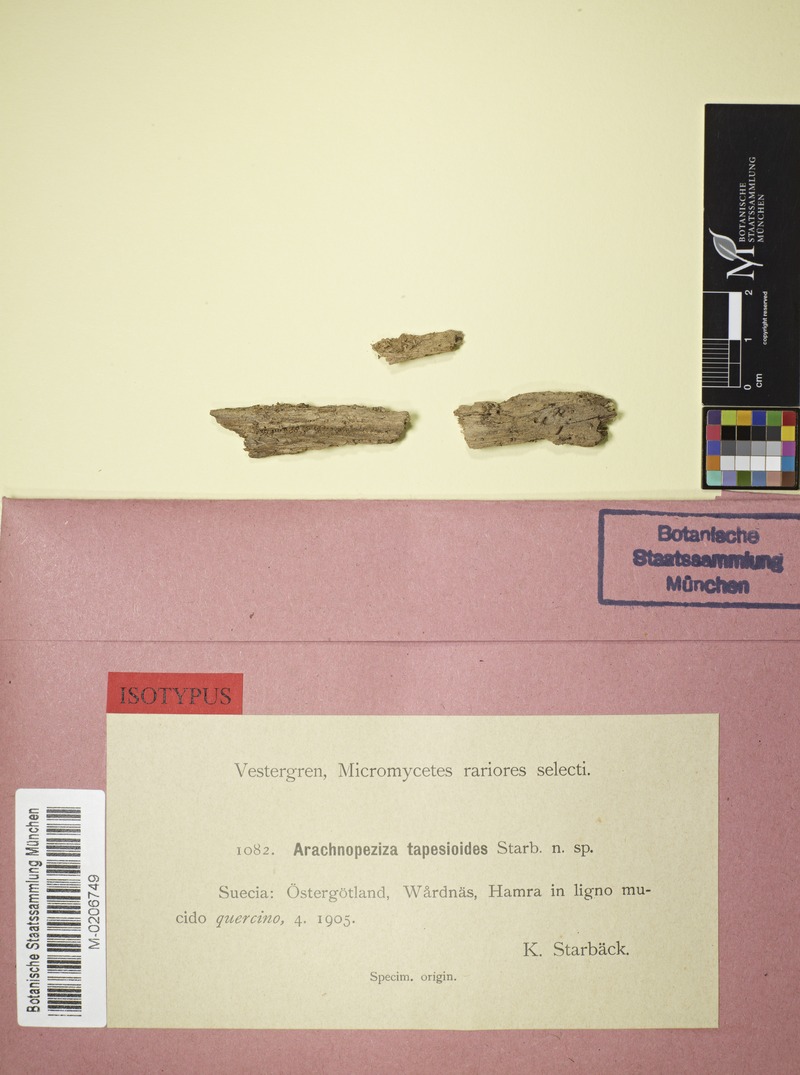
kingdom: Fungi
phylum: Ascomycota
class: Leotiomycetes
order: Helotiales
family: Arachnopezizaceae
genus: Arachnopeziza
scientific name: Arachnopeziza cornuta
